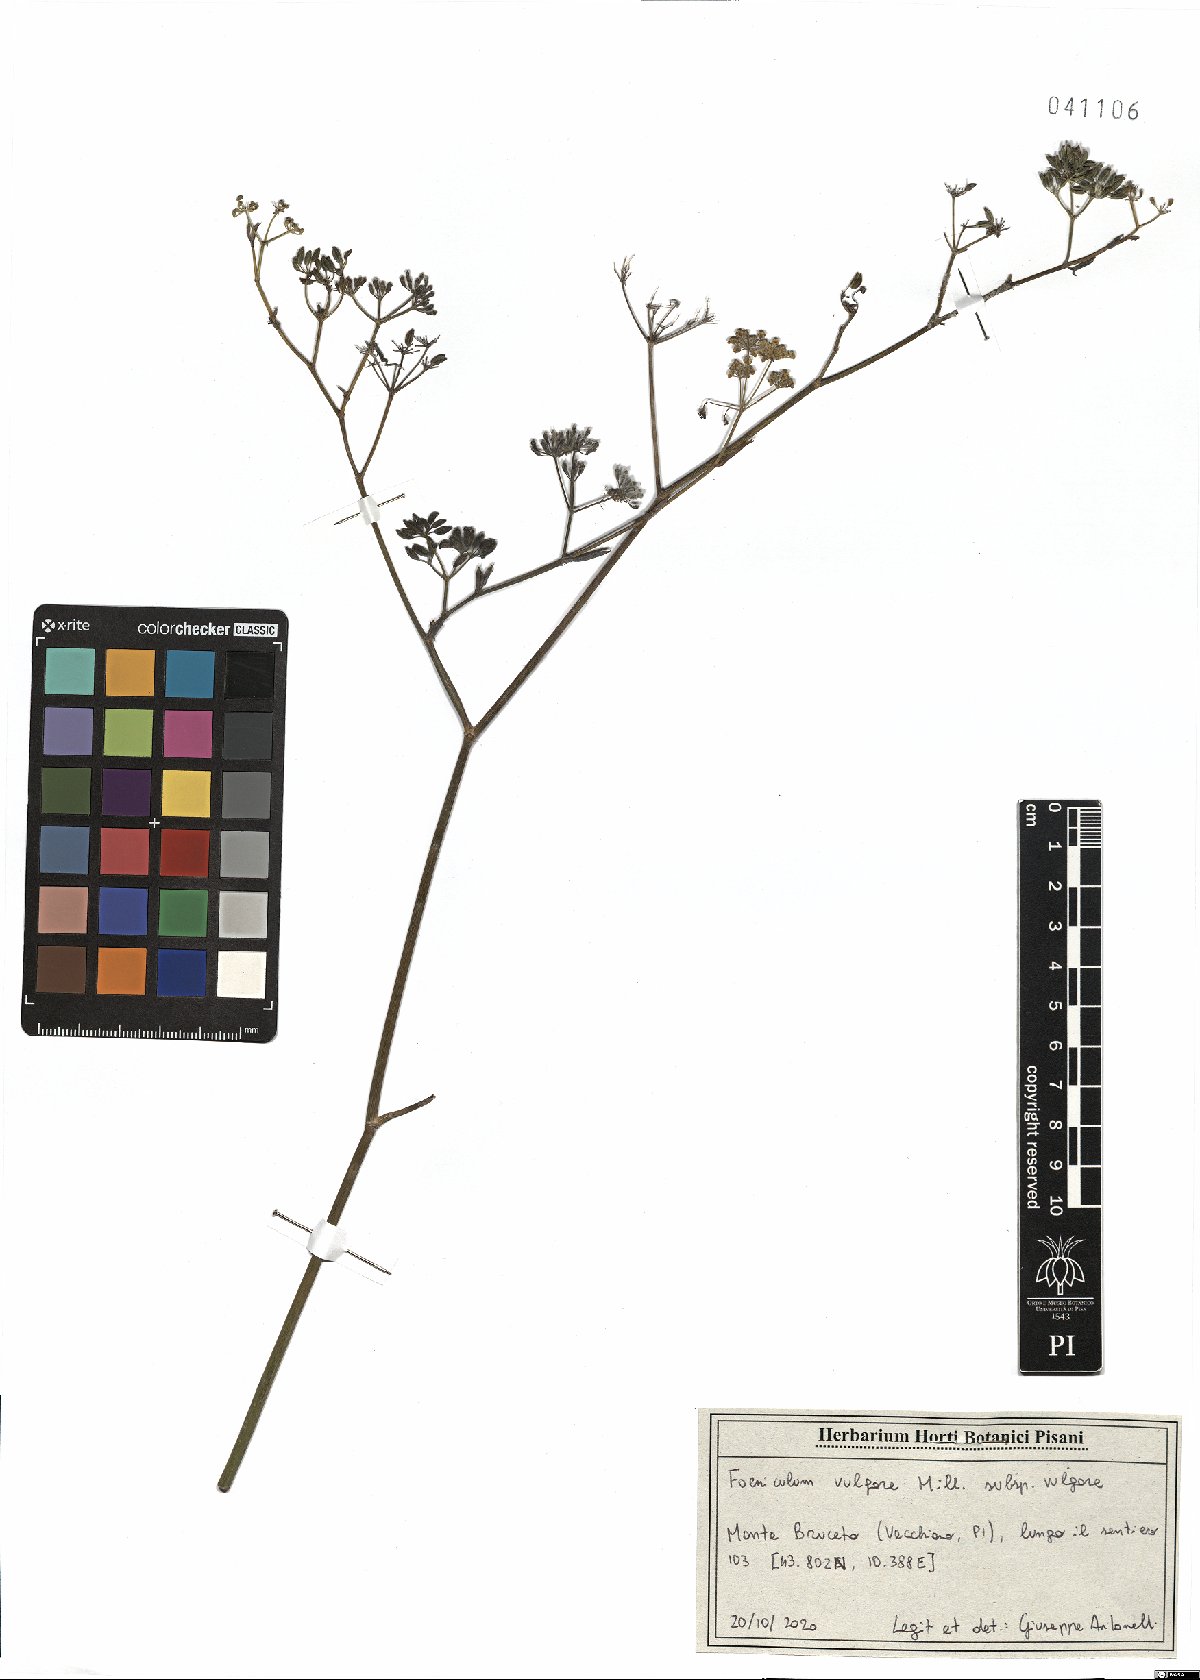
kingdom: Plantae
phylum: Tracheophyta
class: Magnoliopsida
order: Apiales
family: Apiaceae
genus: Foeniculum
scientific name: Foeniculum vulgare
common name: Fennel
